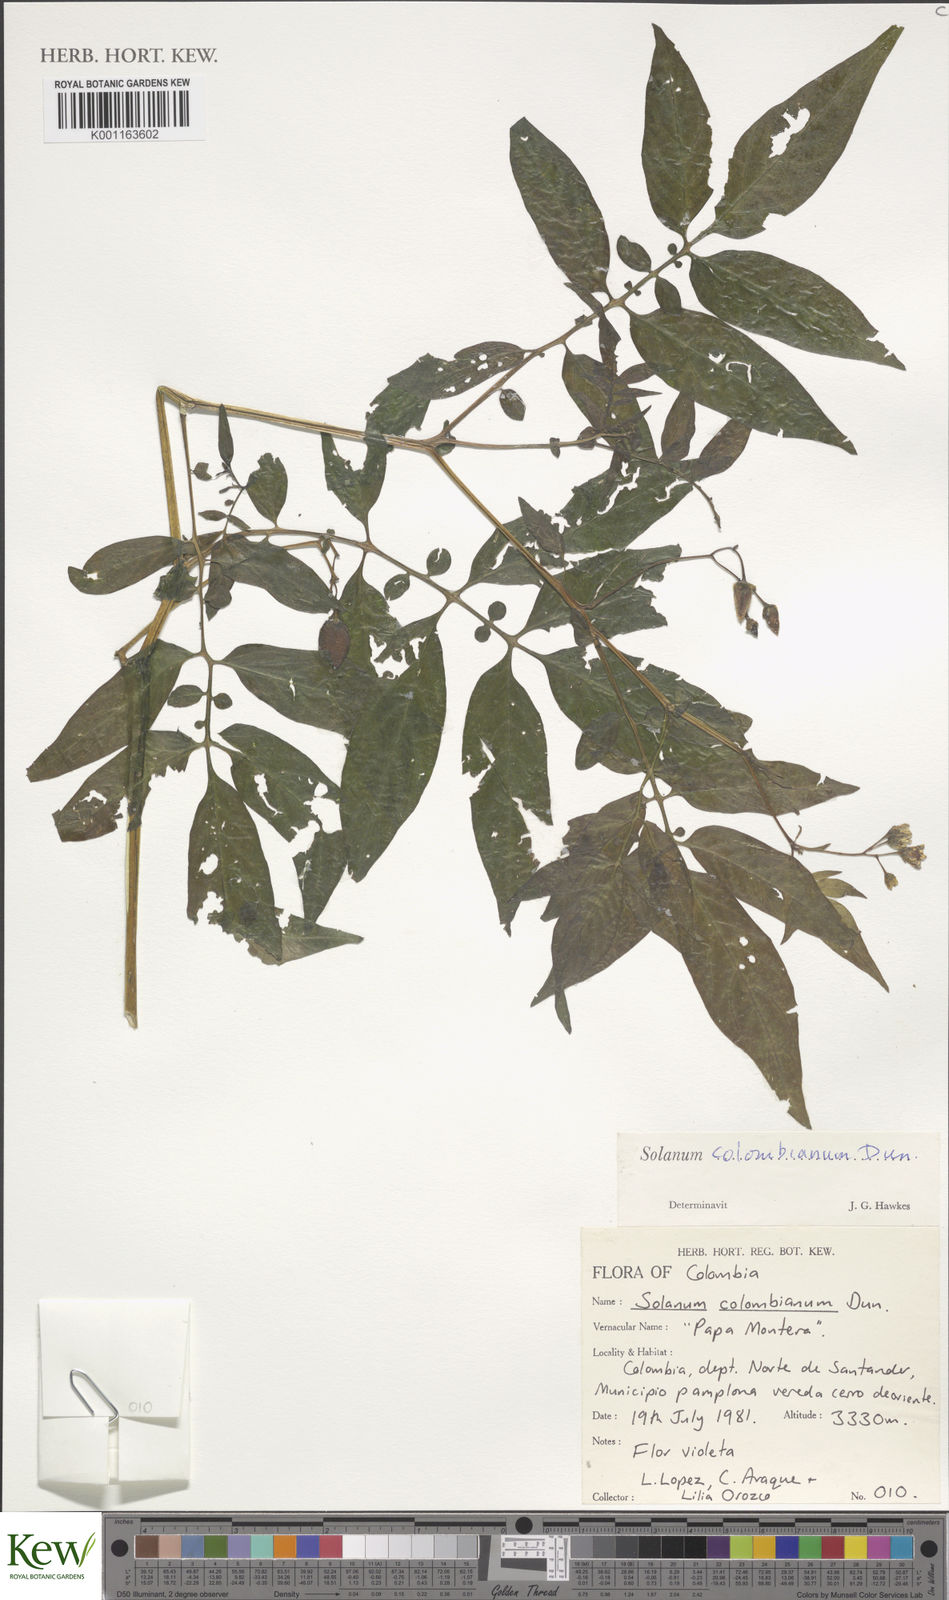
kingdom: Plantae
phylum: Tracheophyta
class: Magnoliopsida
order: Solanales
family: Solanaceae
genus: Solanum
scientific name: Solanum colombianum
